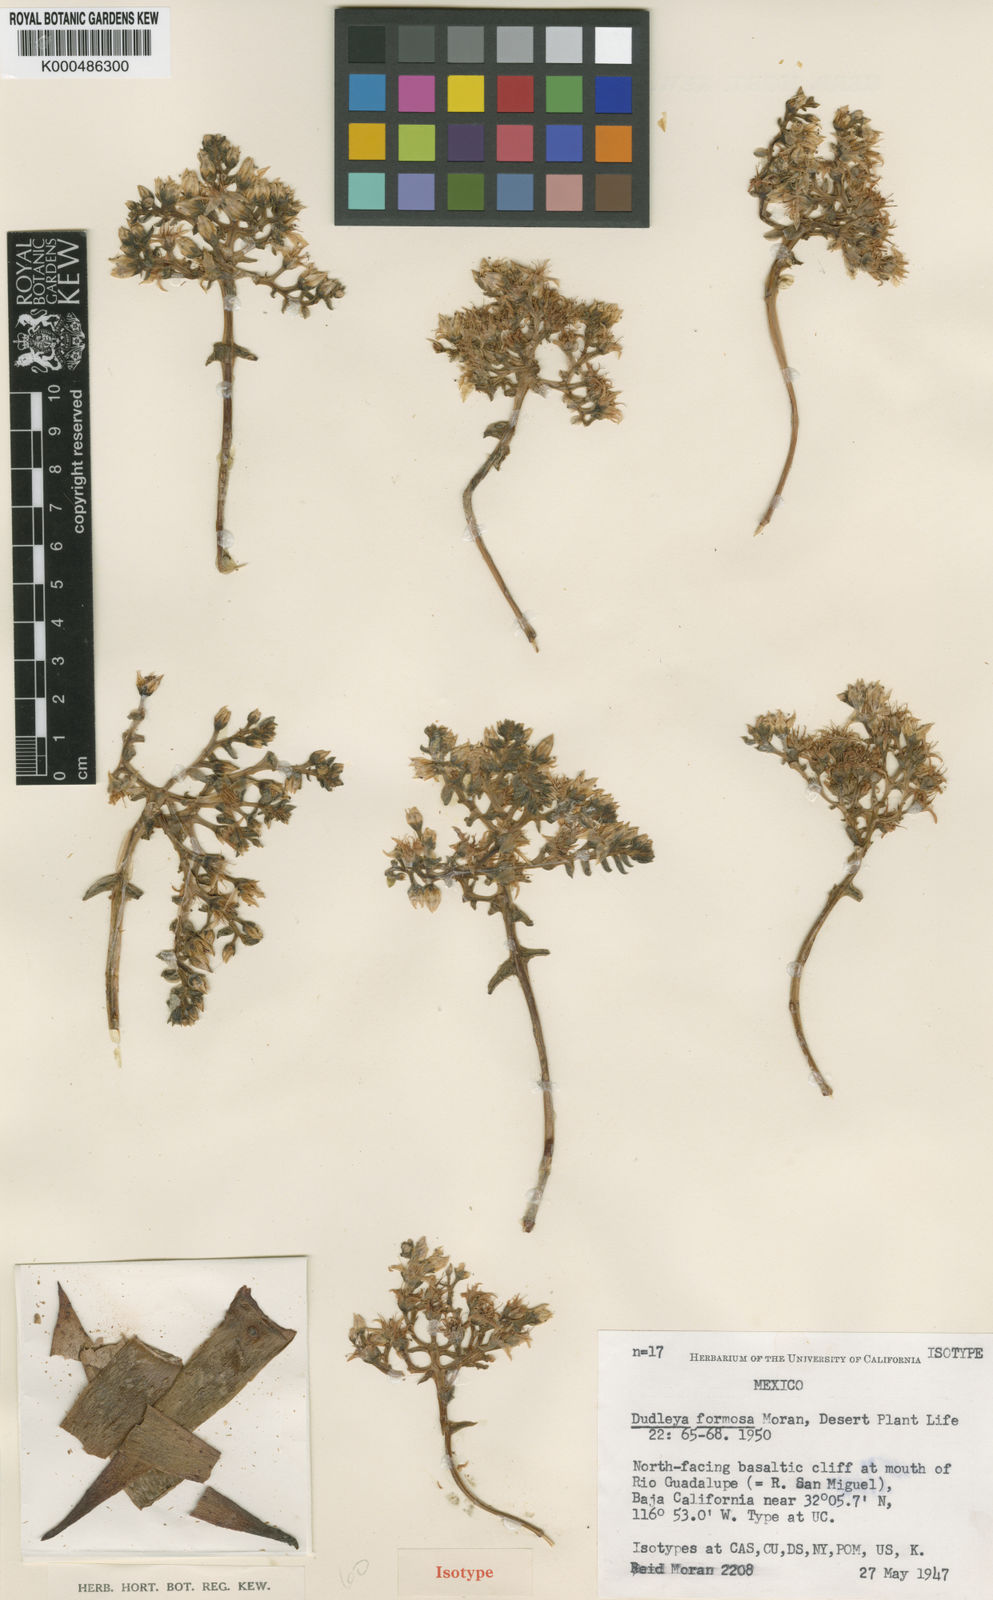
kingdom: Plantae
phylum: Tracheophyta
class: Magnoliopsida
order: Saxifragales
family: Crassulaceae
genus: Dudleya
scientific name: Dudleya formosa
